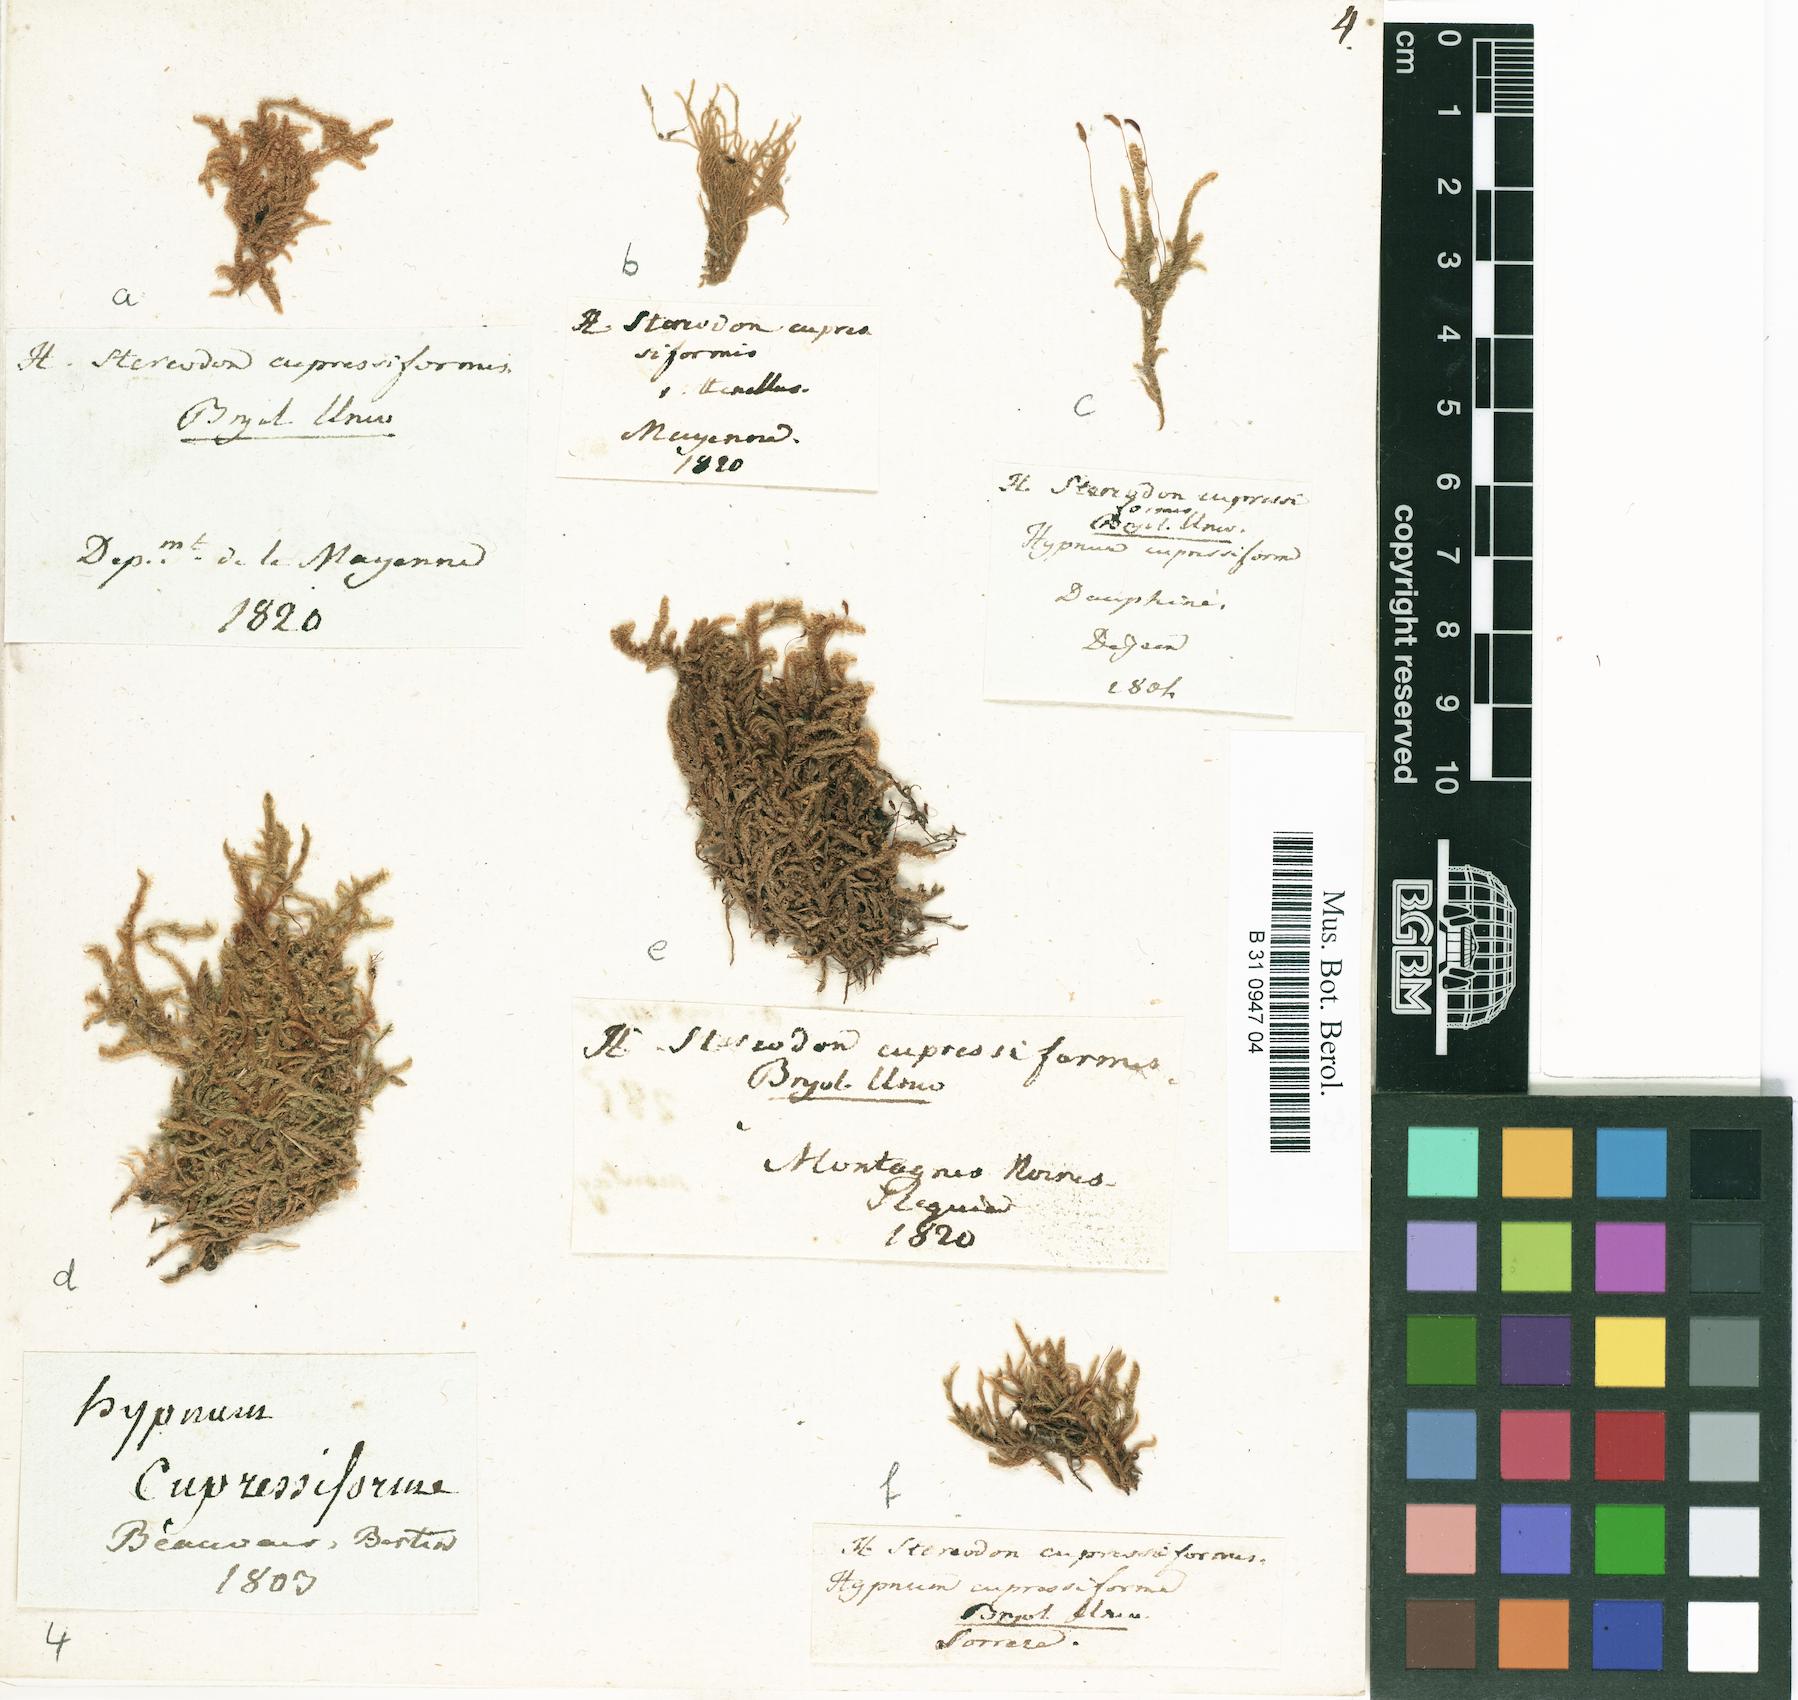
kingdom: Plantae
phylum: Bryophyta
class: Bryopsida
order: Hypnales
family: Hypnaceae
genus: Hypnum
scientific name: Hypnum cupressiforme
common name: Cypress-leaved plait-moss
